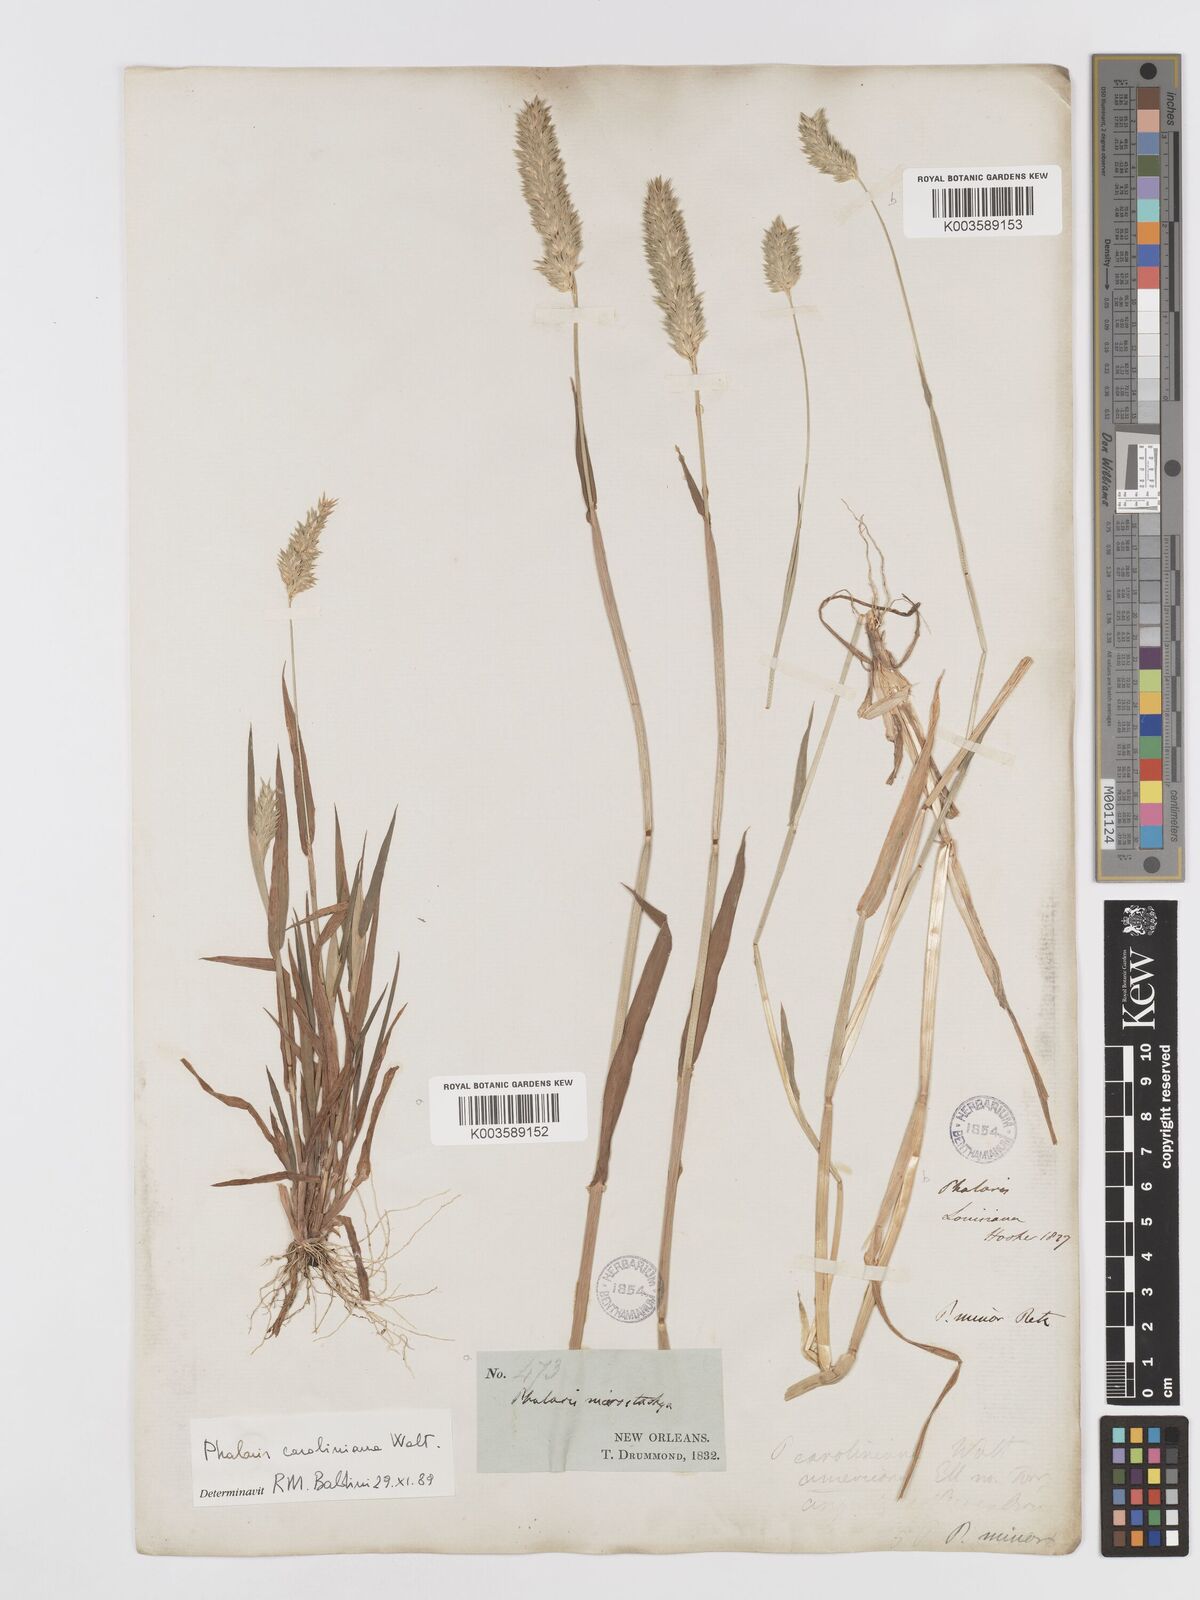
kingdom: Plantae
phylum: Tracheophyta
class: Liliopsida
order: Poales
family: Poaceae
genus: Phalaris
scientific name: Phalaris caroliniana
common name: May grass
